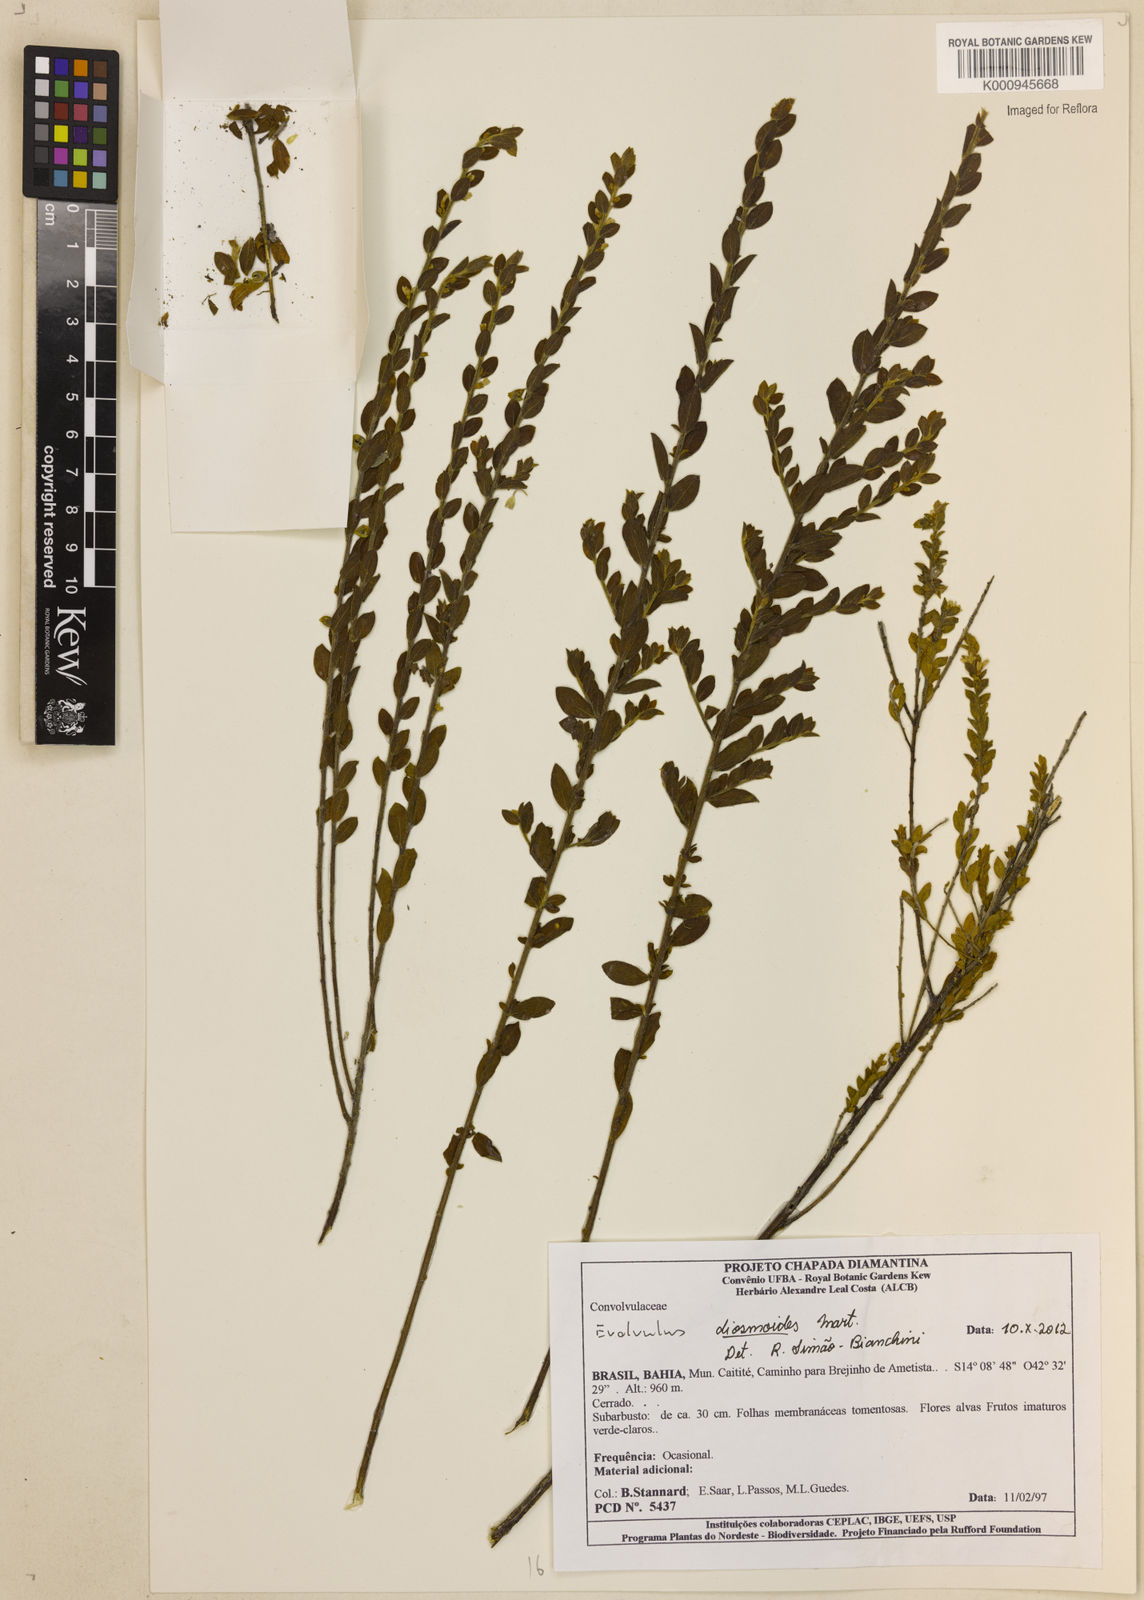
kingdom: Plantae
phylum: Tracheophyta
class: Magnoliopsida
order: Solanales
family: Convolvulaceae
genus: Evolvulus
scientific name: Evolvulus diosmoides
